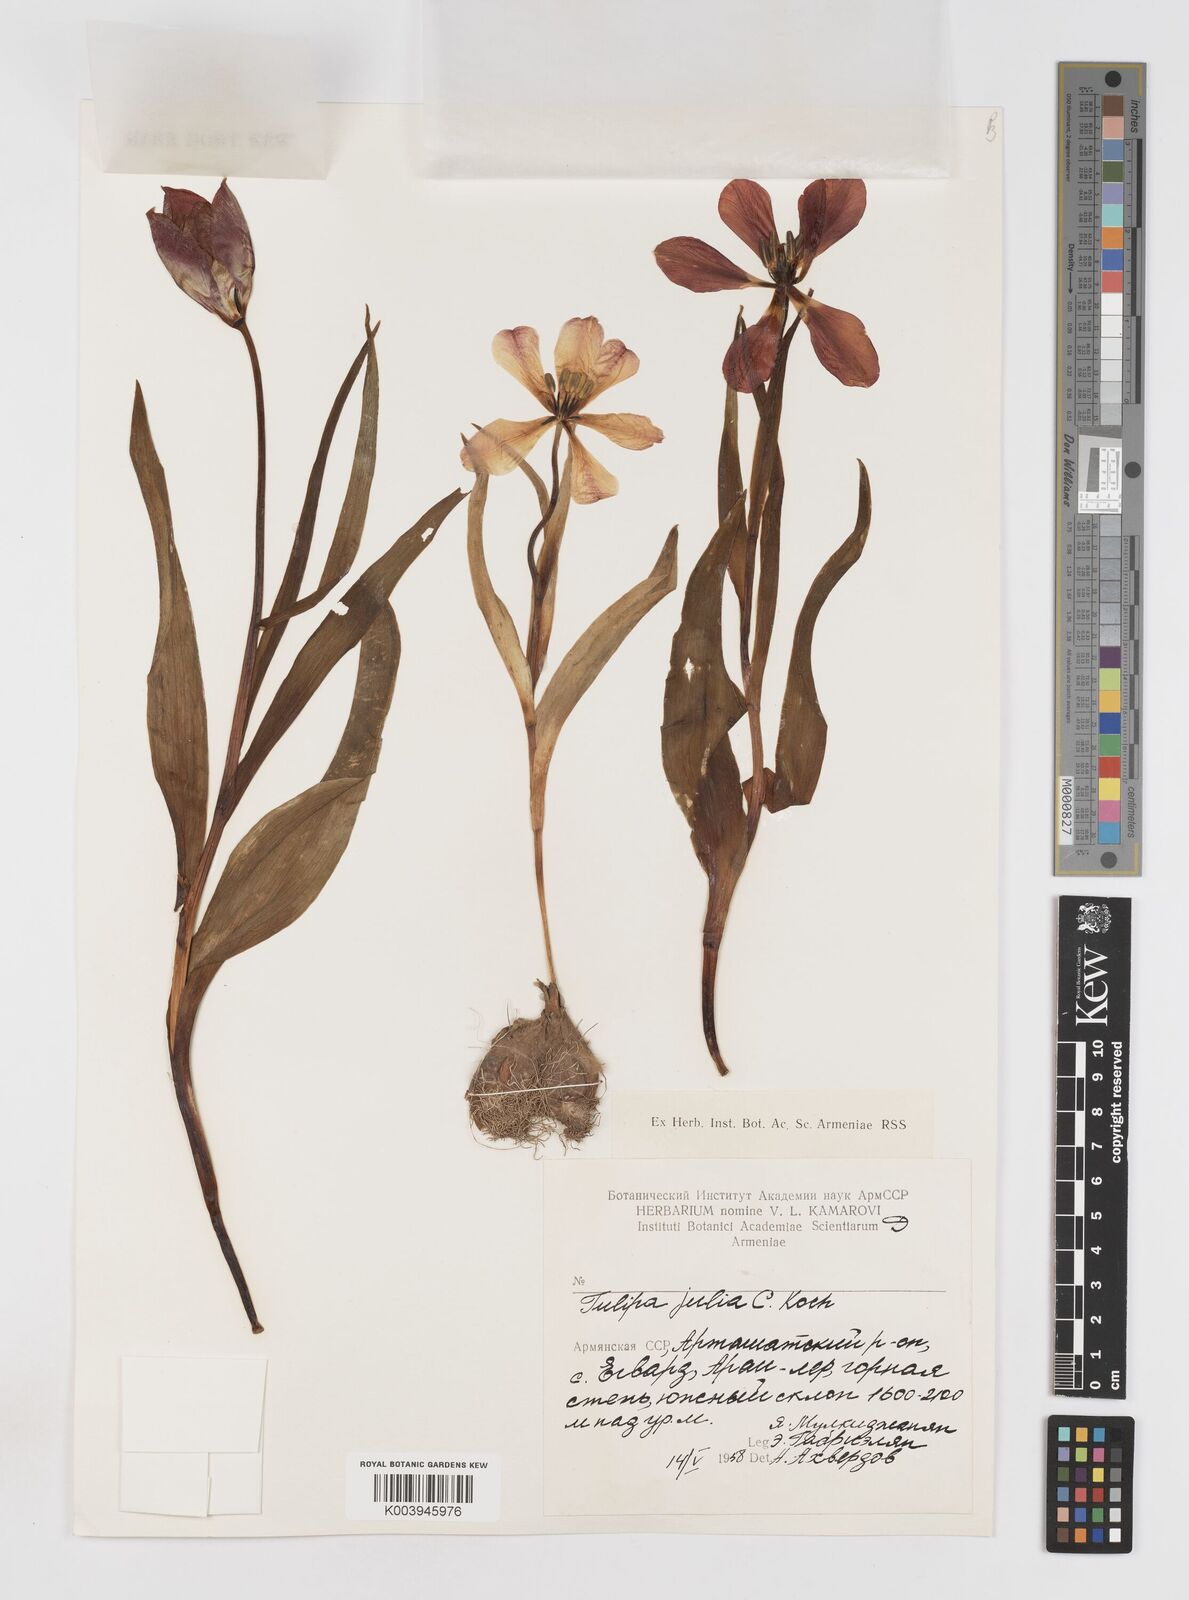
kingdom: Plantae
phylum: Tracheophyta
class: Liliopsida
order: Liliales
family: Liliaceae
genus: Tulipa
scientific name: Tulipa julia
